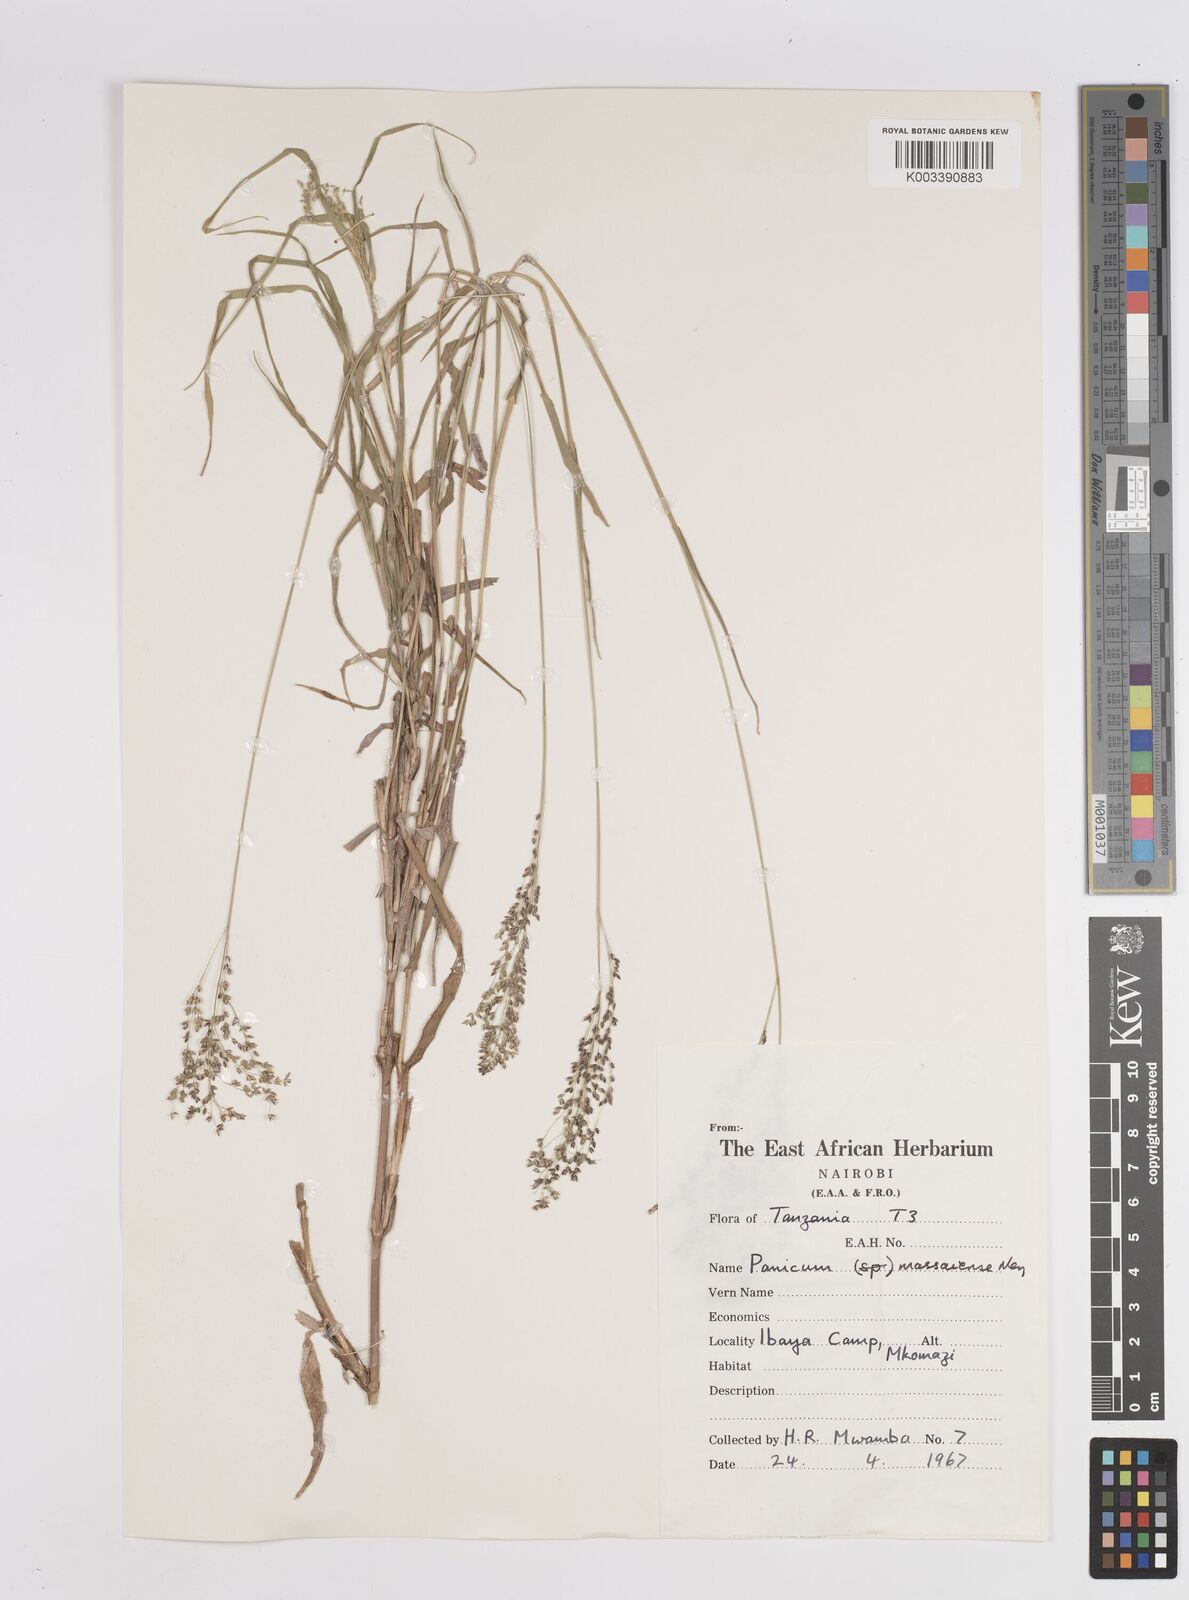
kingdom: Plantae
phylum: Tracheophyta
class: Liliopsida
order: Poales
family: Poaceae
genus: Panicum
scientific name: Panicum coloratum
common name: Kleingrass
